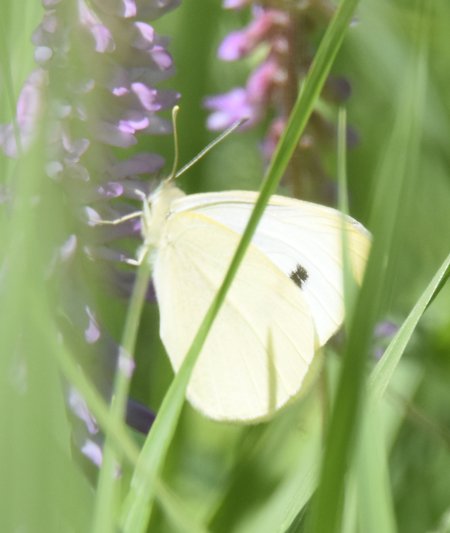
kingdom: Animalia
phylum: Arthropoda
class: Insecta
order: Lepidoptera
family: Pieridae
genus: Pieris
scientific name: Pieris rapae
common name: Cabbage White
